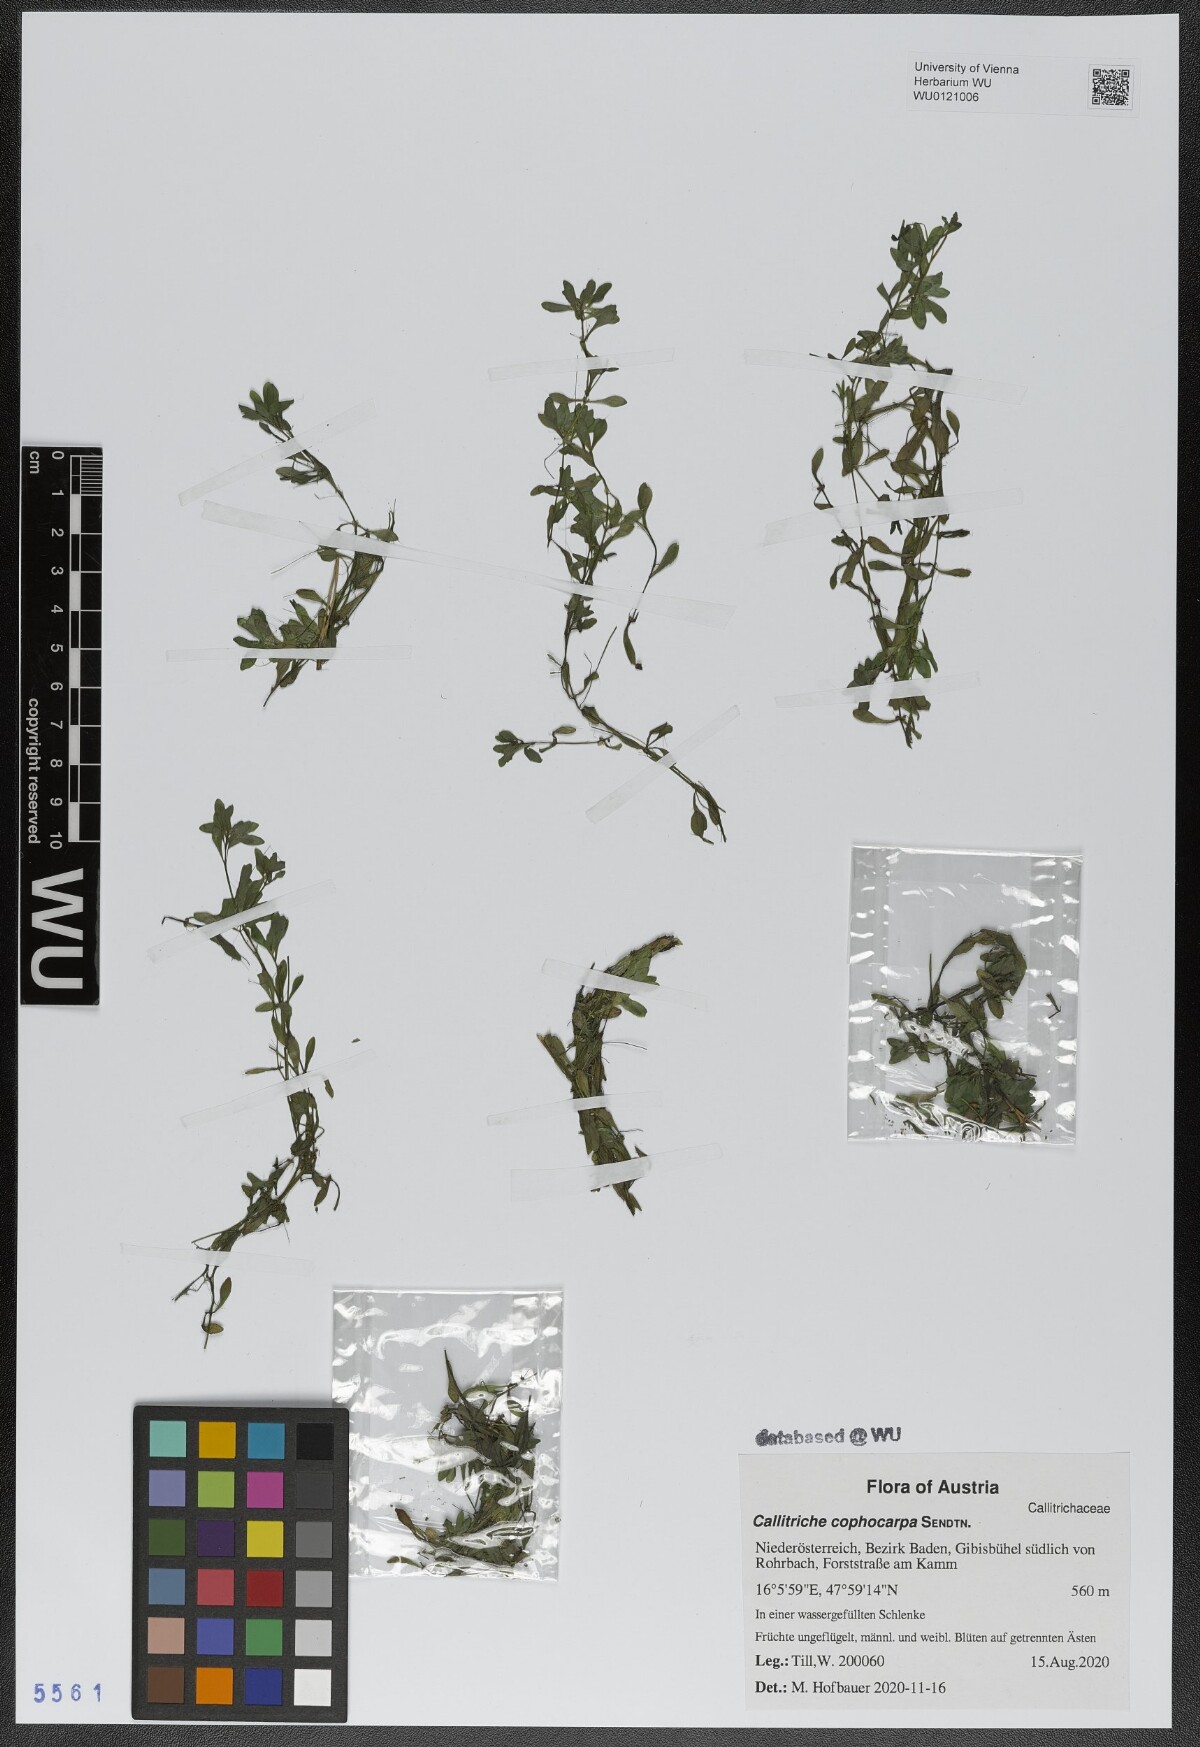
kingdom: Plantae
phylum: Tracheophyta
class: Magnoliopsida
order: Lamiales
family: Plantaginaceae
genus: Callitriche
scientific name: Callitriche cophocarpa
